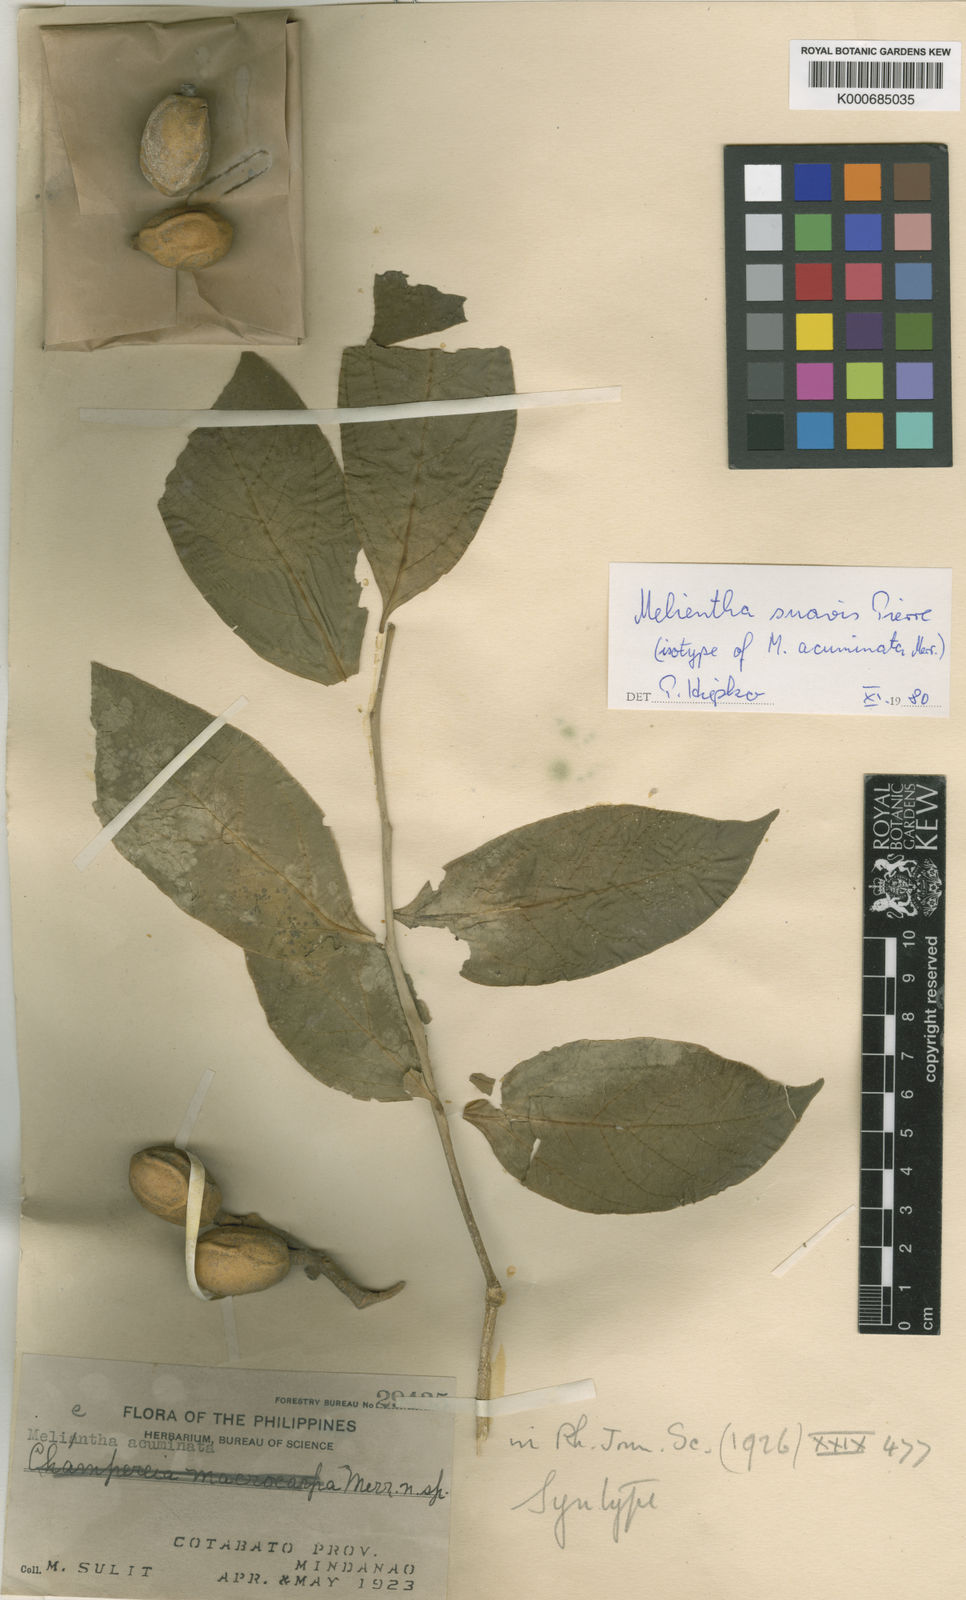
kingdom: Plantae
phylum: Tracheophyta
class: Magnoliopsida
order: Santalales
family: Opiliaceae
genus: Melientha
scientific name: Melientha suavis
